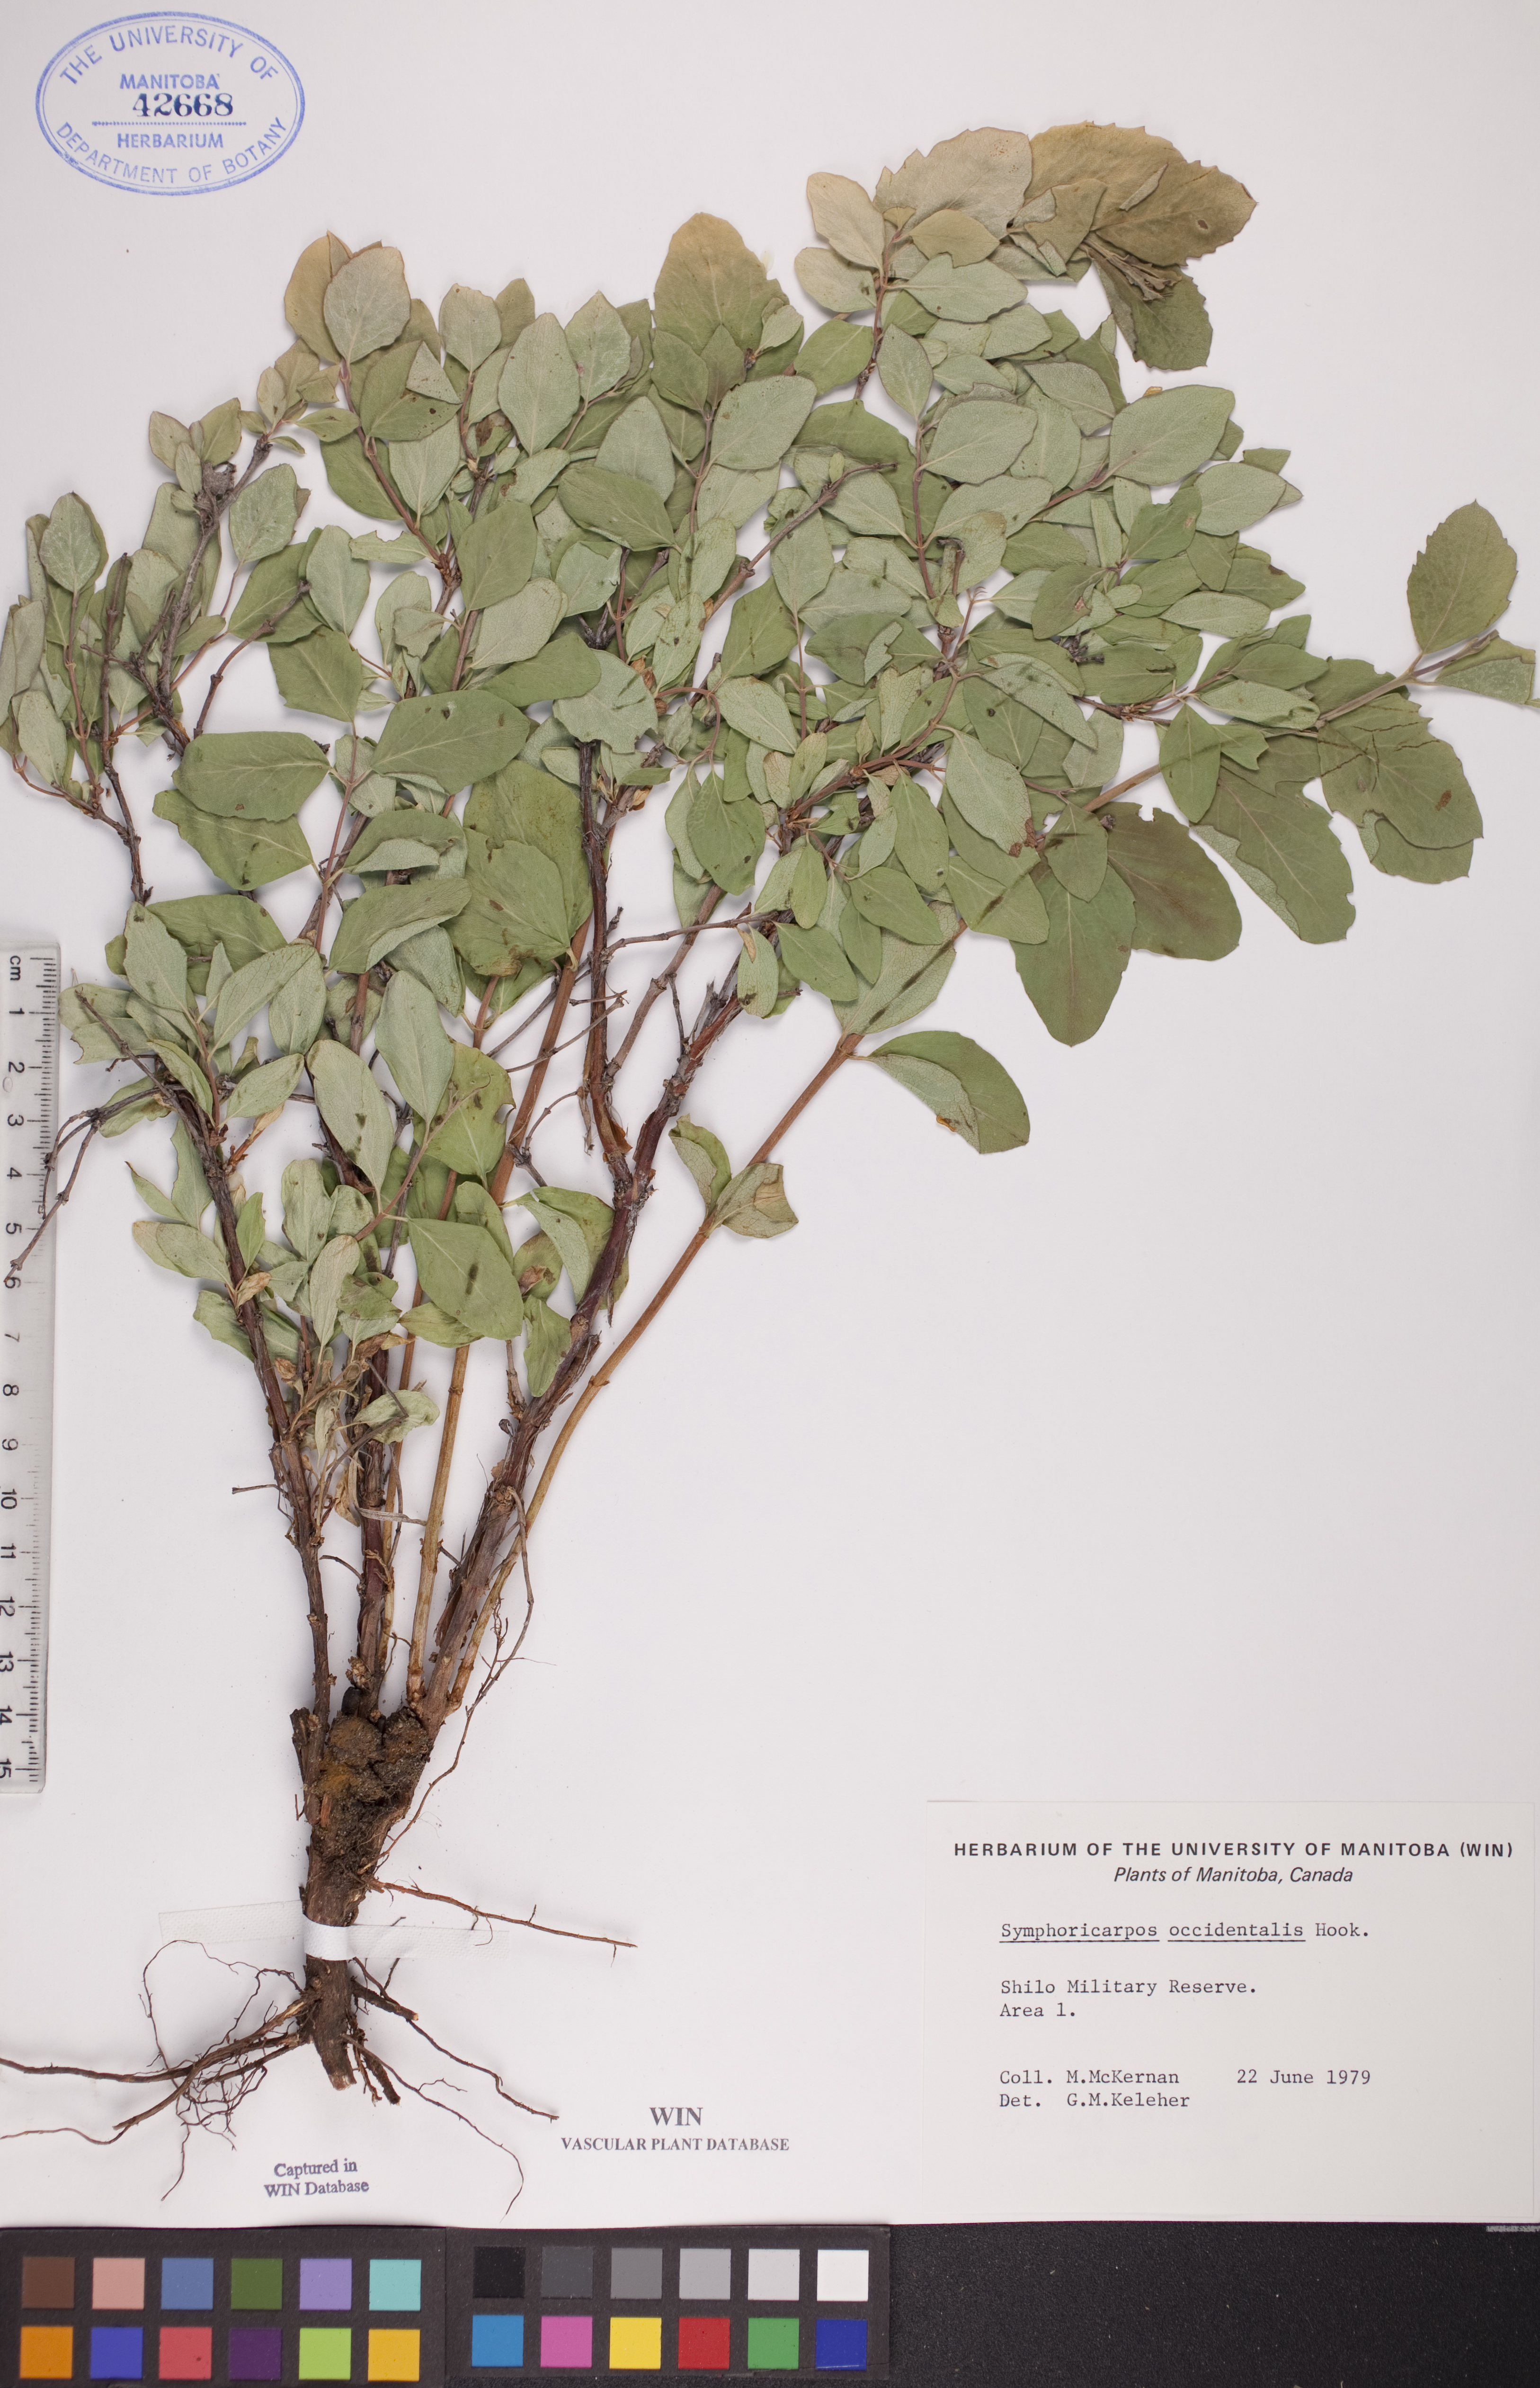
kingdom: Plantae
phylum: Tracheophyta
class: Magnoliopsida
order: Dipsacales
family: Caprifoliaceae
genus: Symphoricarpos
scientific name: Symphoricarpos occidentalis
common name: Wolfberry
